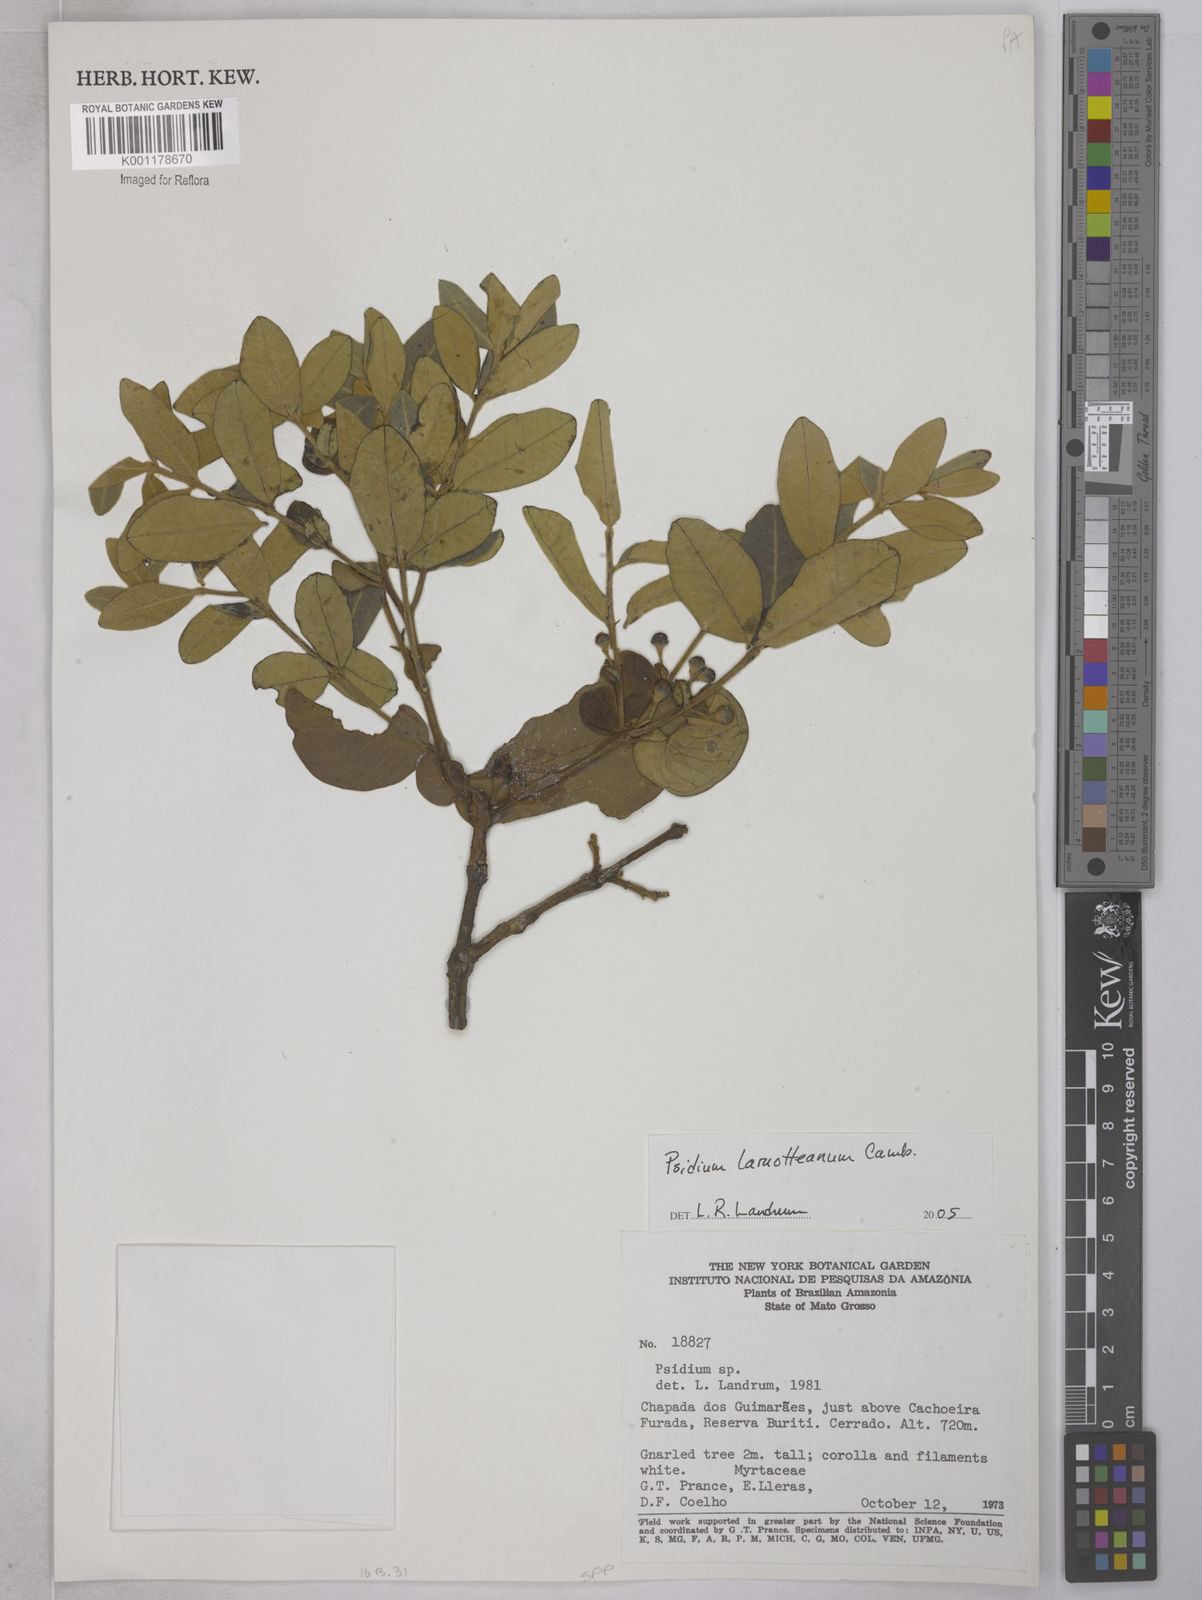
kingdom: Plantae
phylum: Tracheophyta
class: Magnoliopsida
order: Myrtales
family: Myrtaceae
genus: Psidium
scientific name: Psidium larueotteanum
